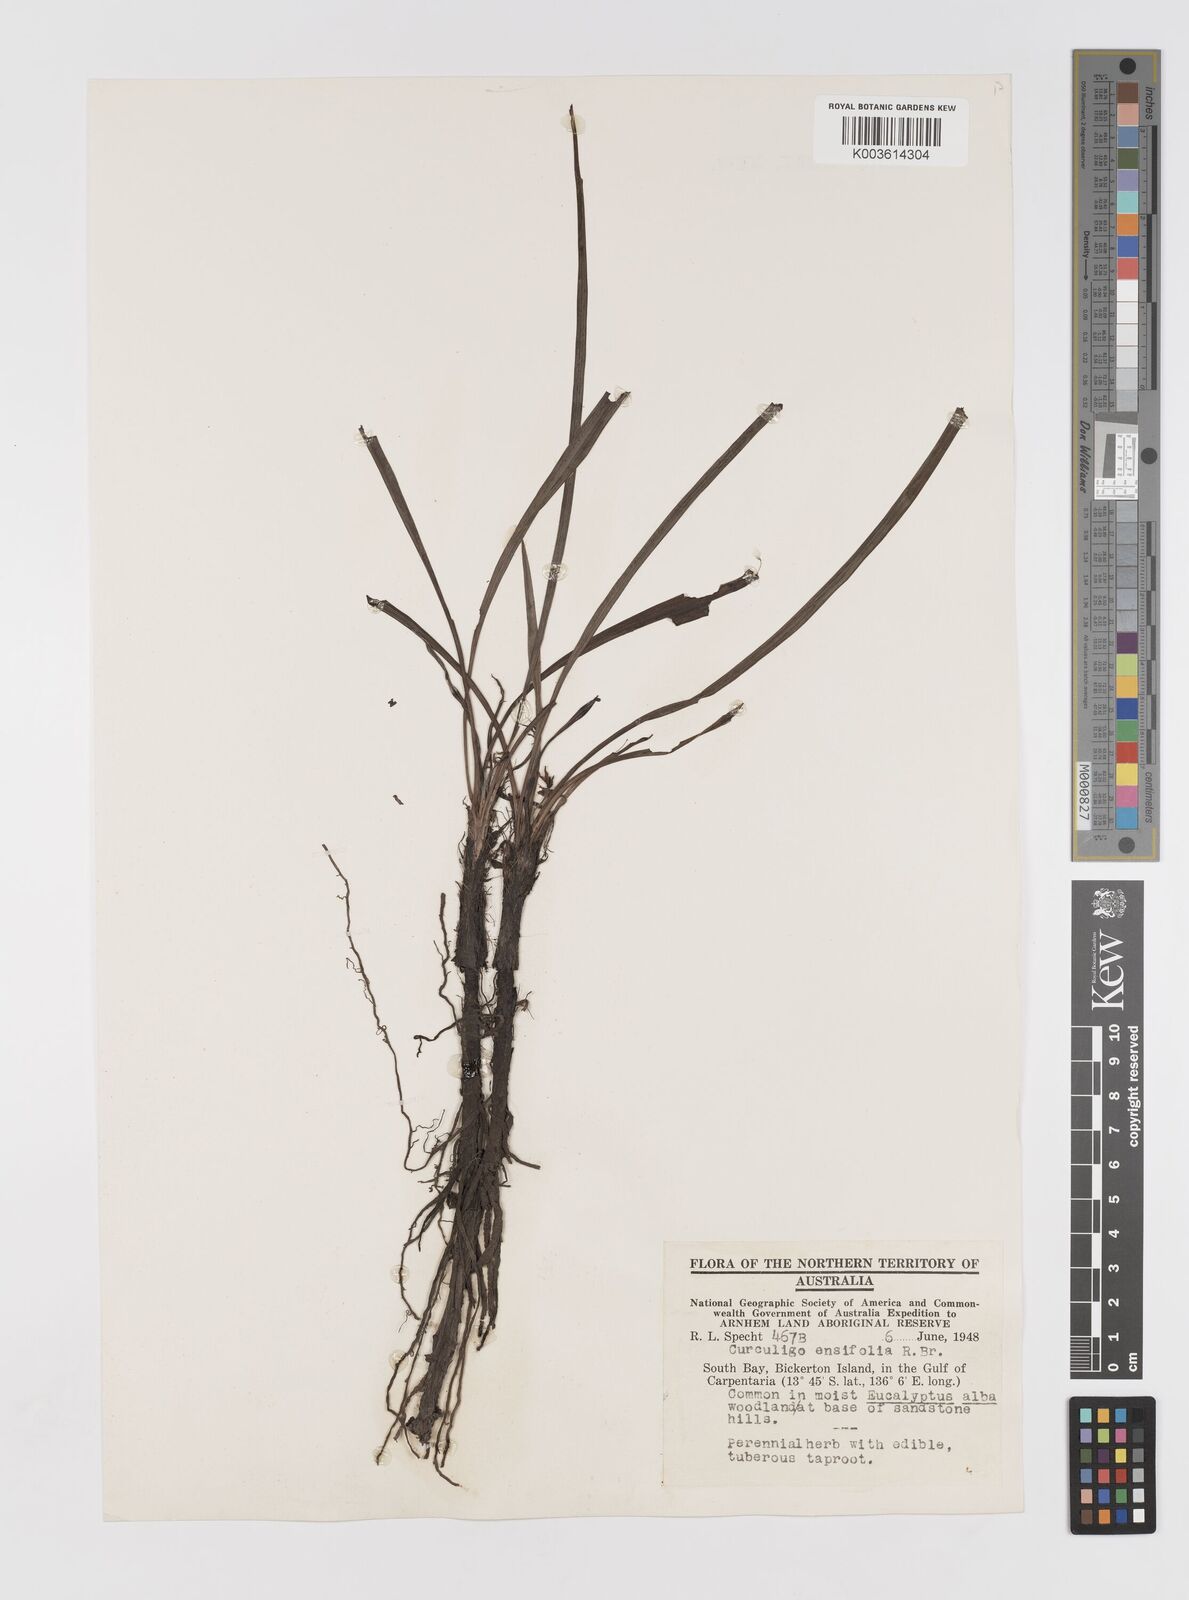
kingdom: Plantae
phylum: Tracheophyta
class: Liliopsida
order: Asparagales
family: Hypoxidaceae
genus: Curculigo
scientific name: Curculigo orchioides
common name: Golden eye-grass
